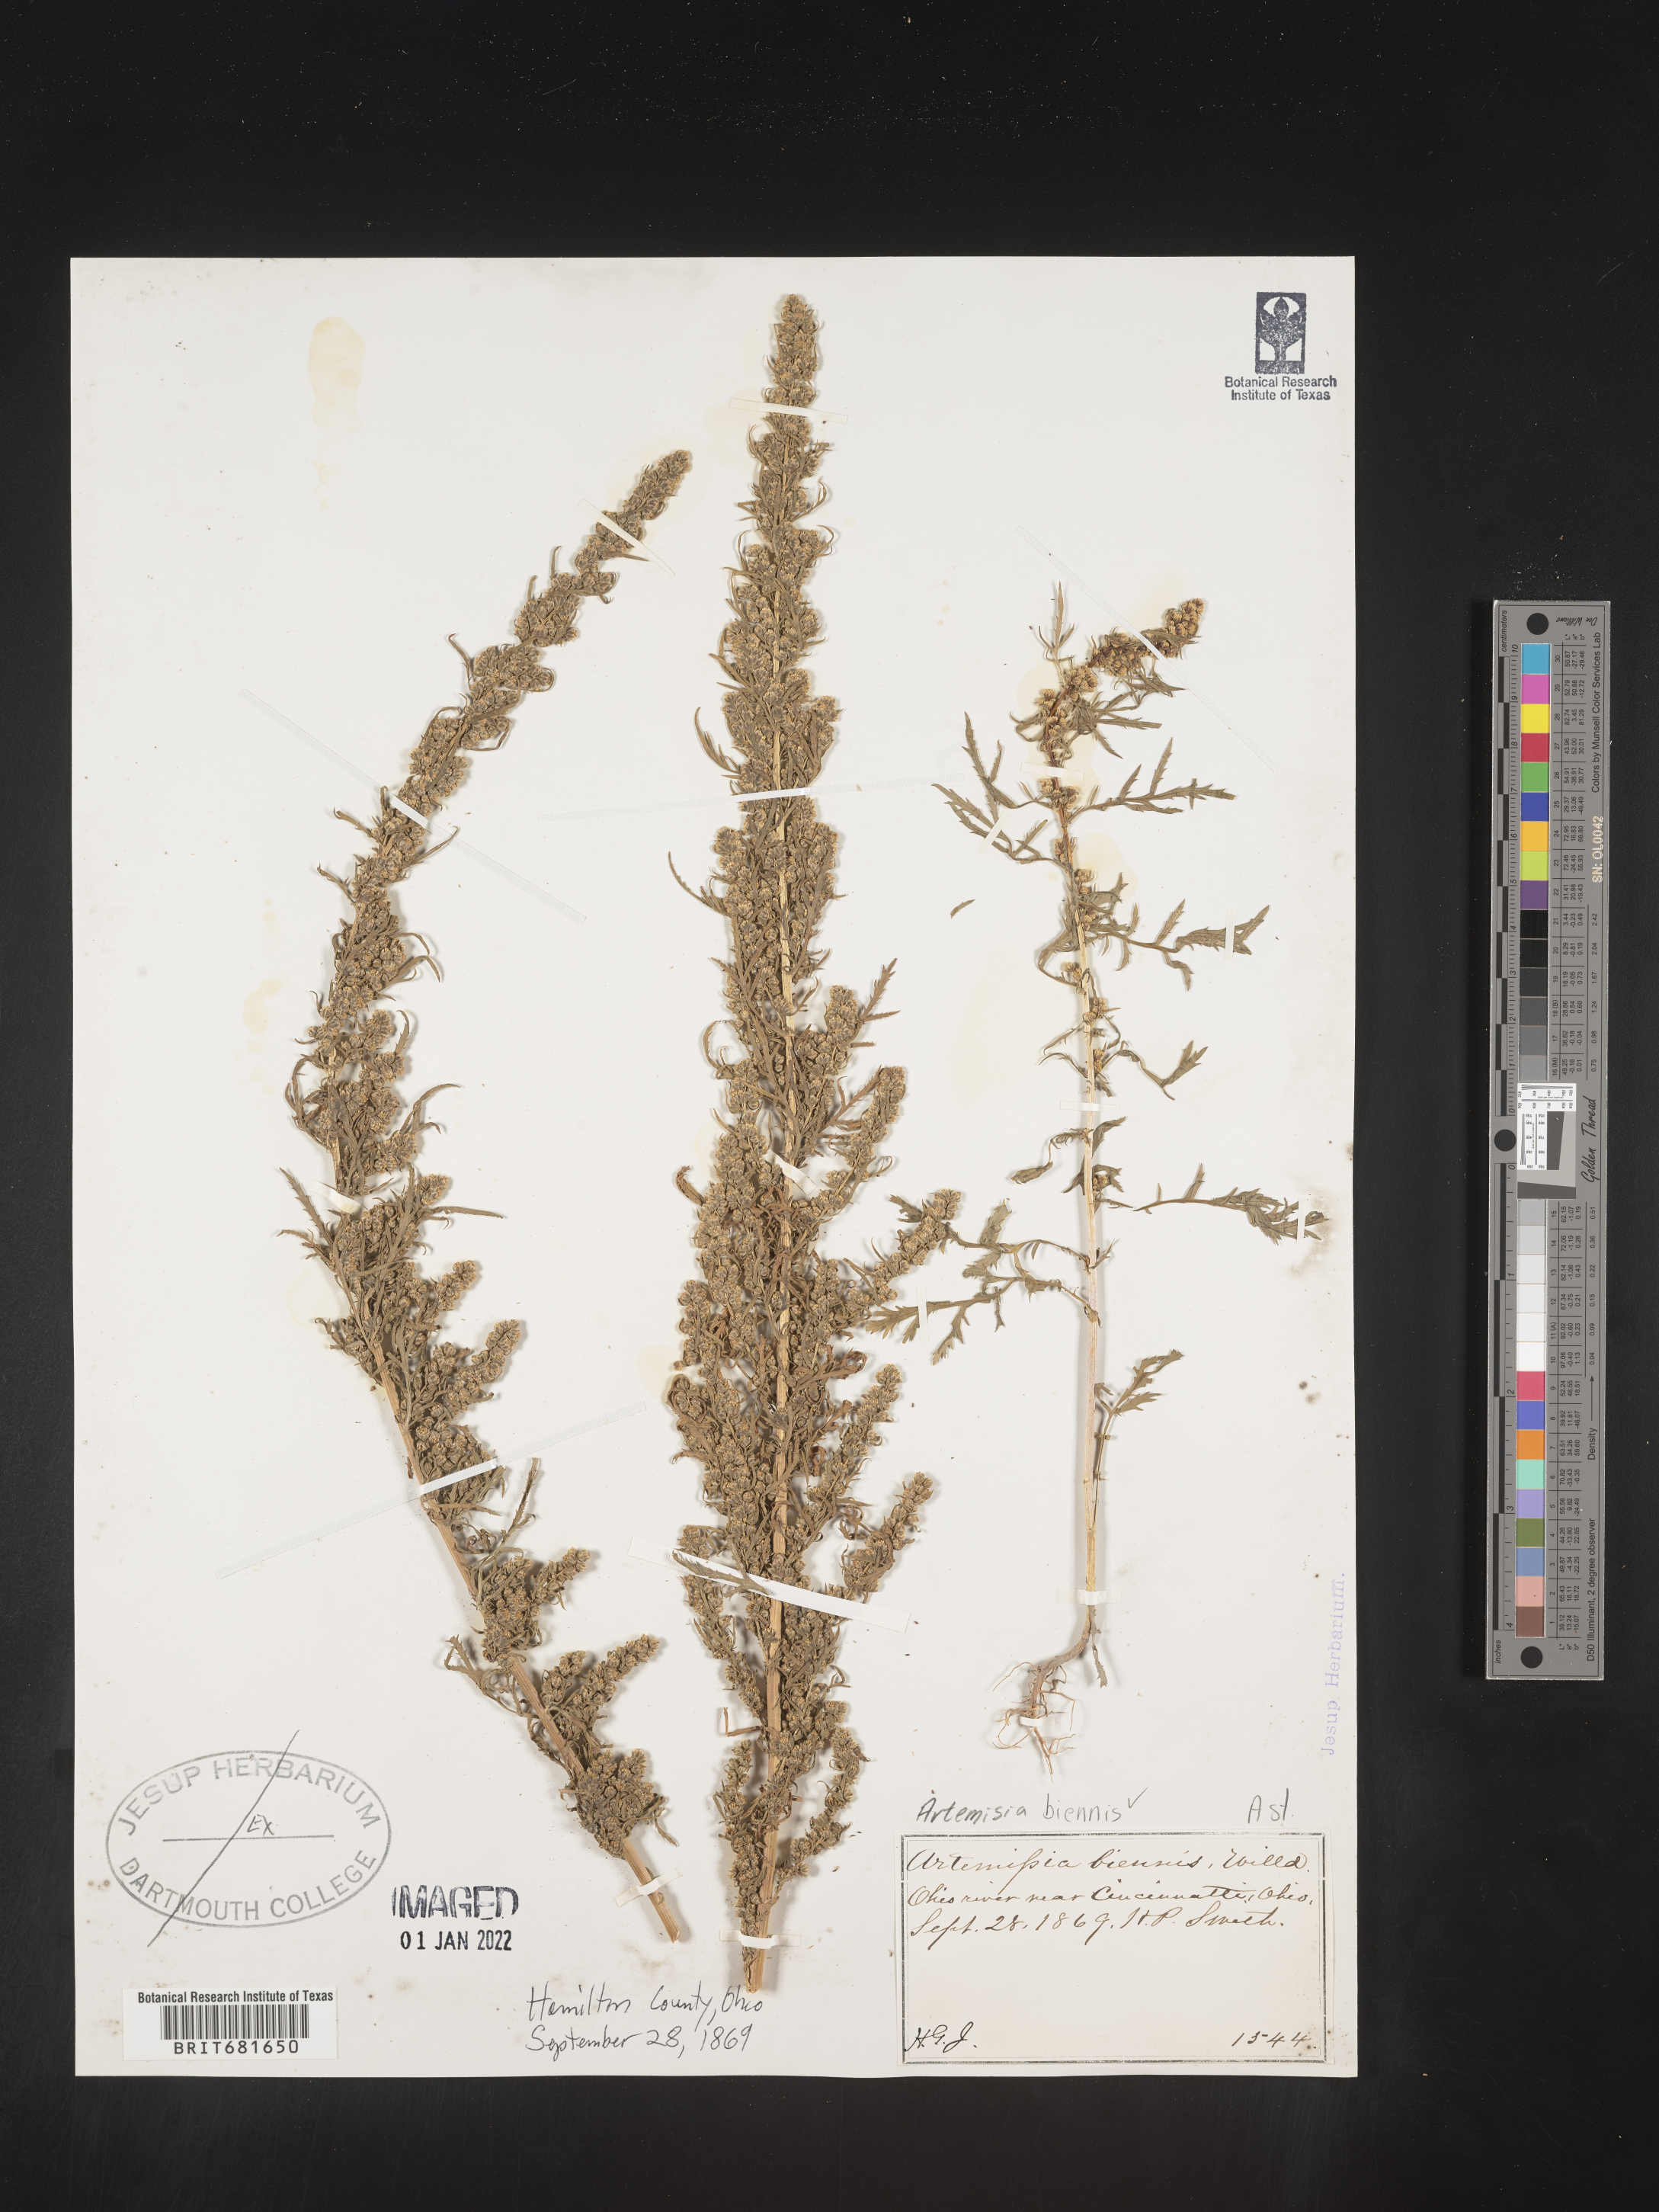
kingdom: Plantae
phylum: Tracheophyta
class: Magnoliopsida
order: Asterales
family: Asteraceae
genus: Artemisia
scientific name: Artemisia biennis
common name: Biennial wormwood
